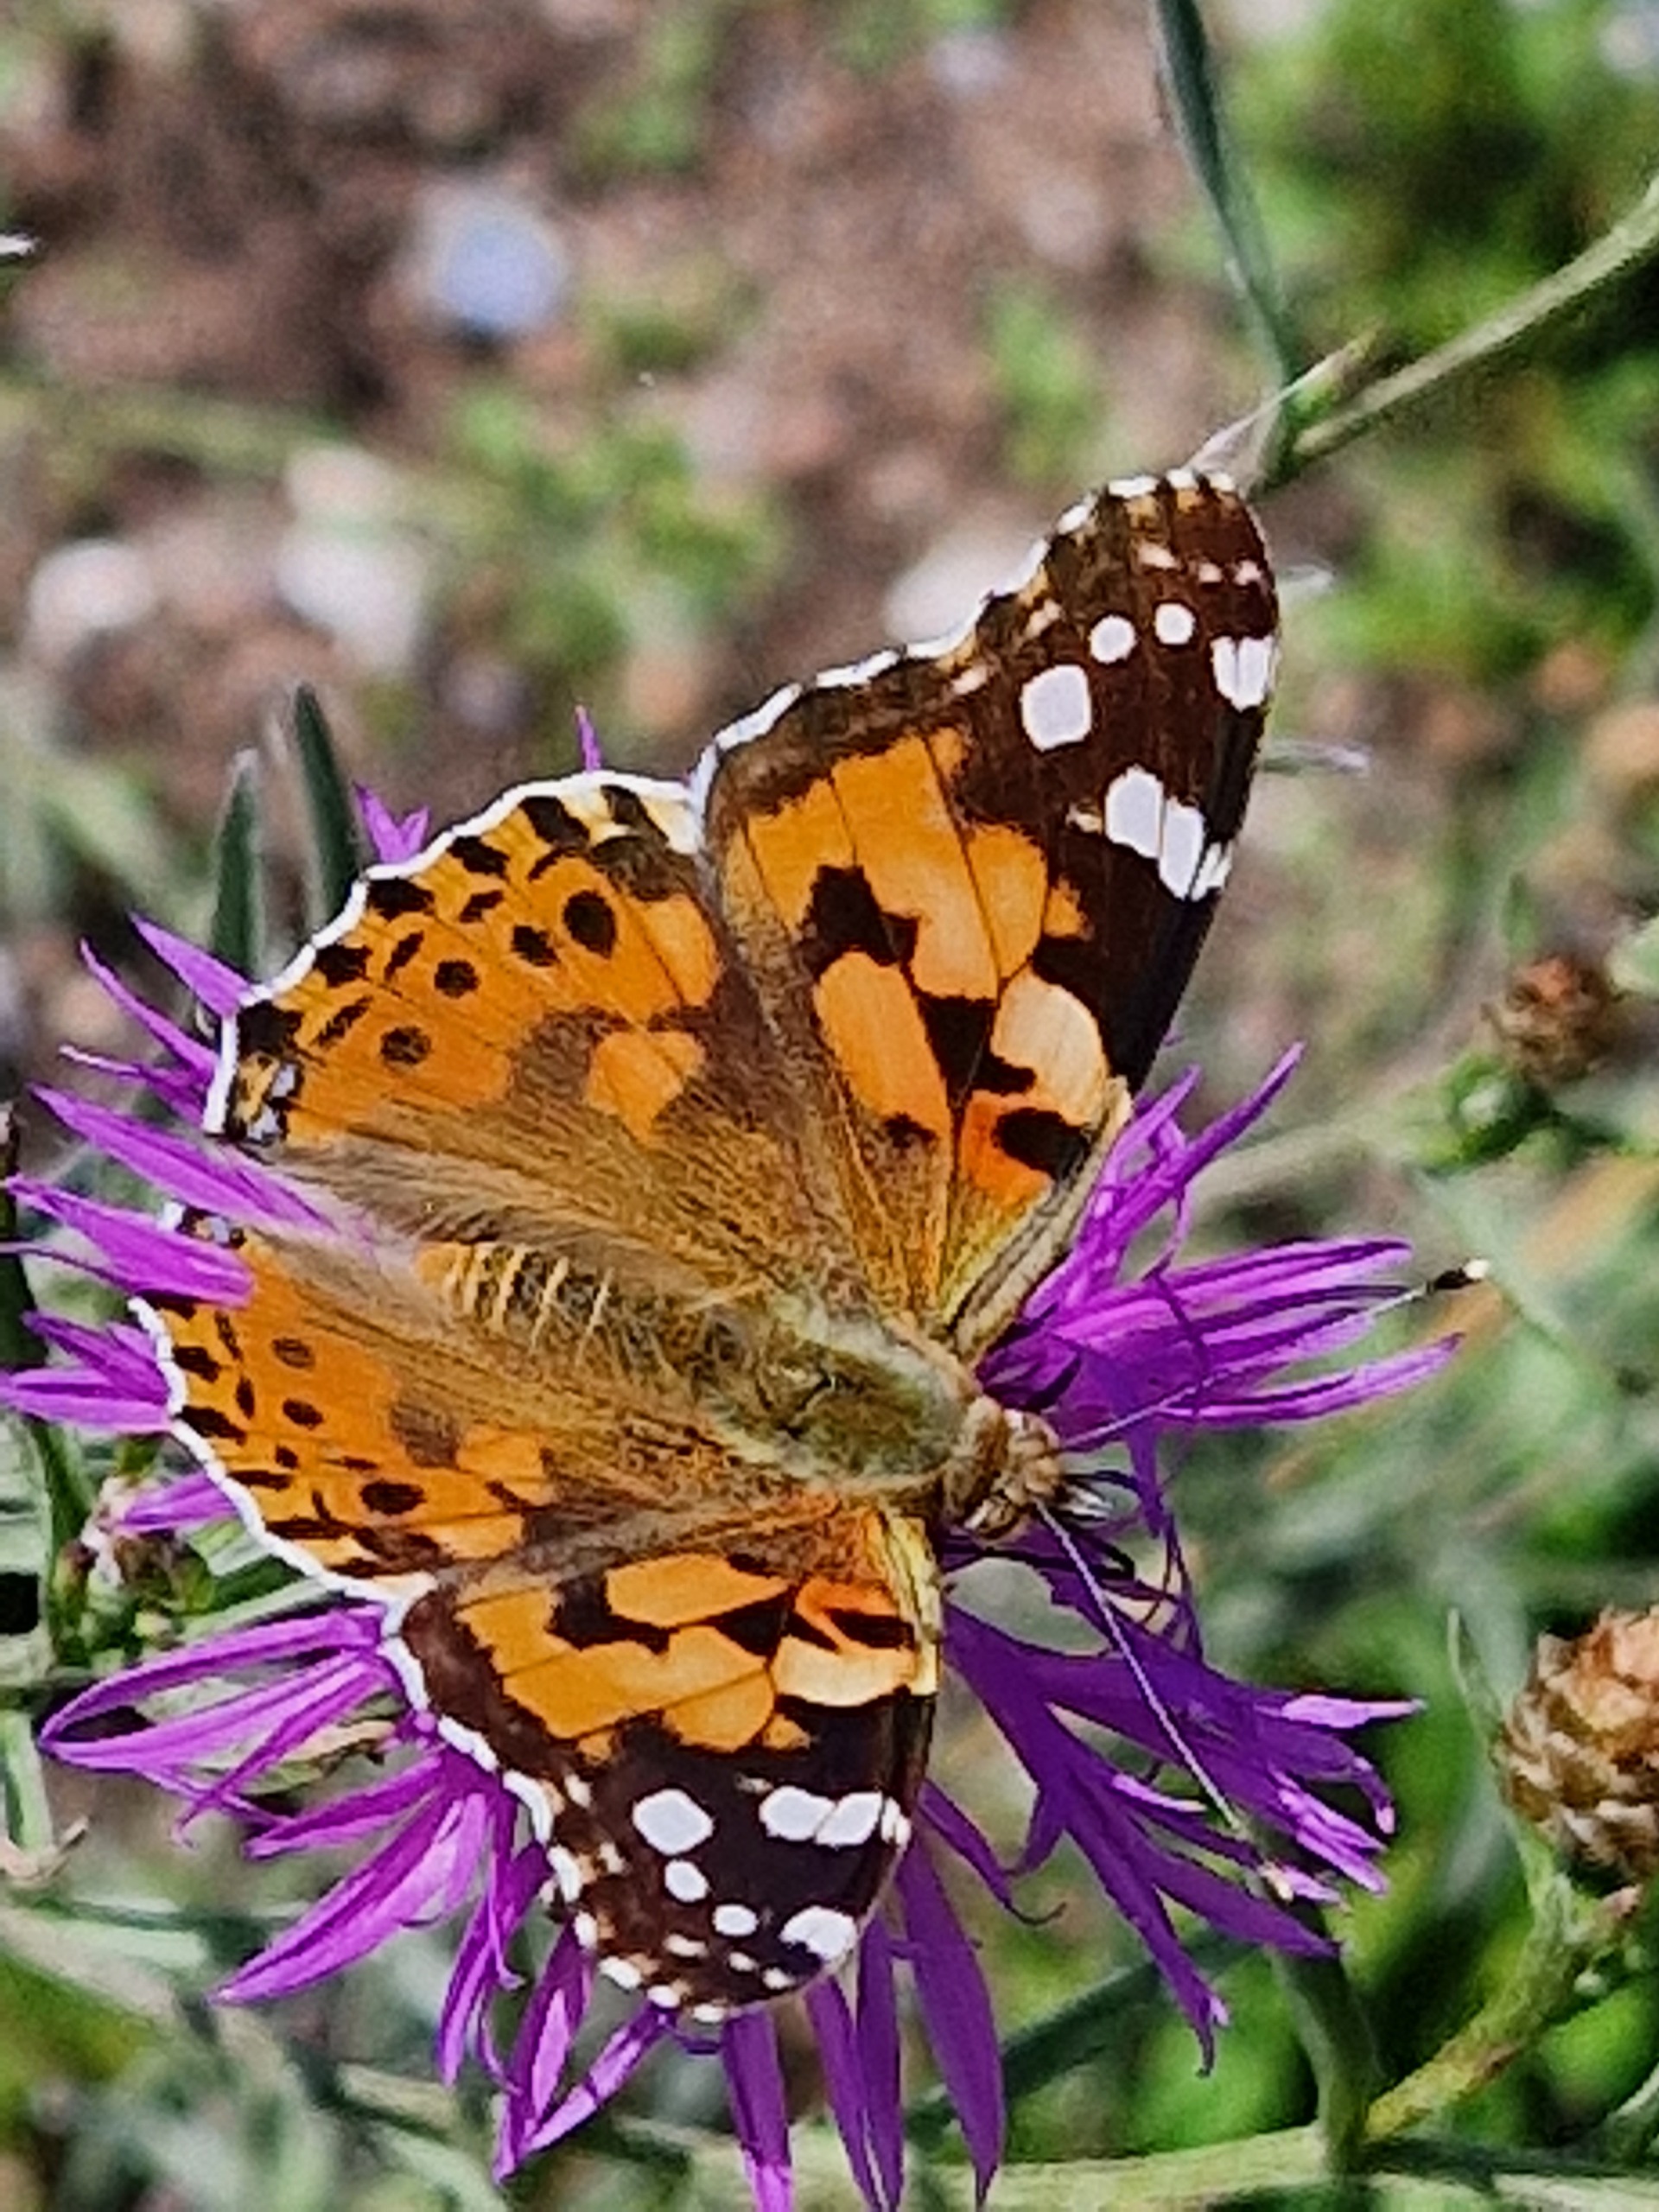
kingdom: Animalia
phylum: Arthropoda
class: Insecta
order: Lepidoptera
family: Nymphalidae
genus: Vanessa
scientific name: Vanessa cardui
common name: Tidselsommerfugl
